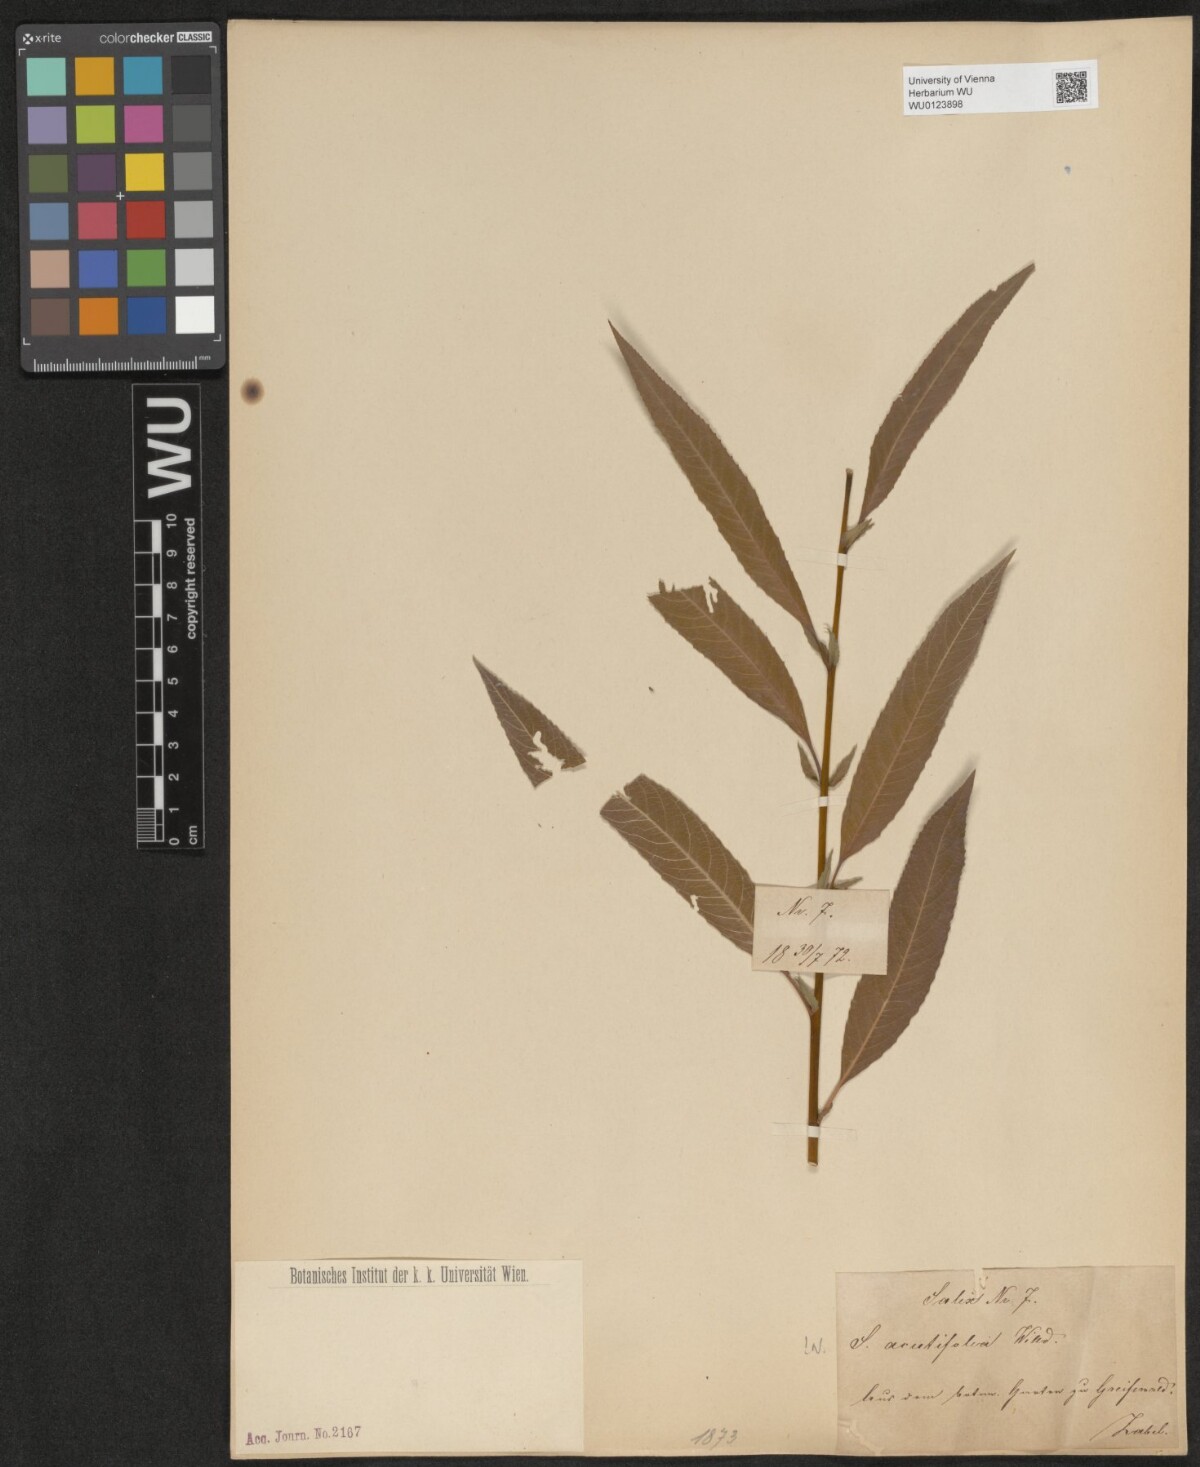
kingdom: Plantae
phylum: Tracheophyta
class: Magnoliopsida
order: Malpighiales
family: Salicaceae
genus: Salix
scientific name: Salix acutifolia
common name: Siberian violet-willow
